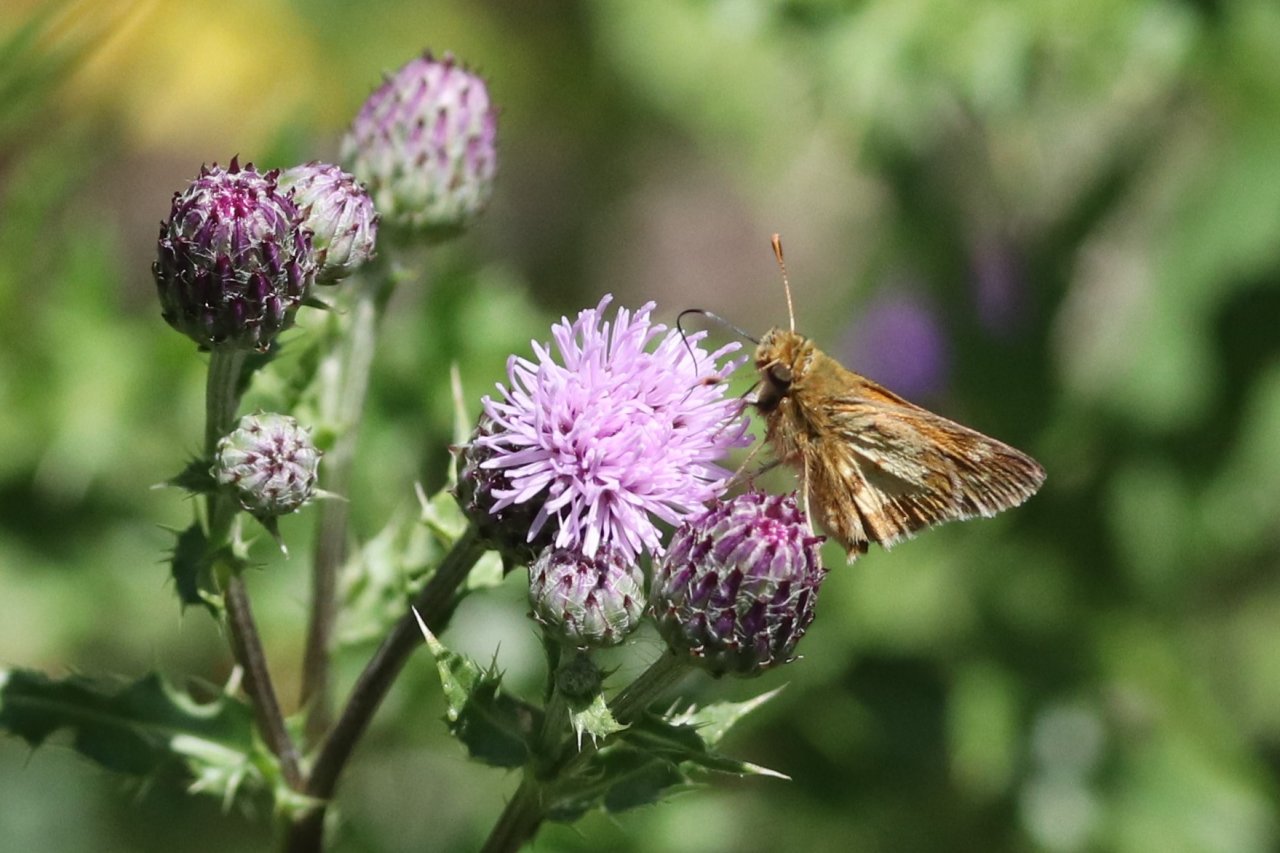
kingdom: Animalia
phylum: Arthropoda
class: Insecta
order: Lepidoptera
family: Hesperiidae
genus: Polites
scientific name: Polites coras
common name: Peck's Skipper
